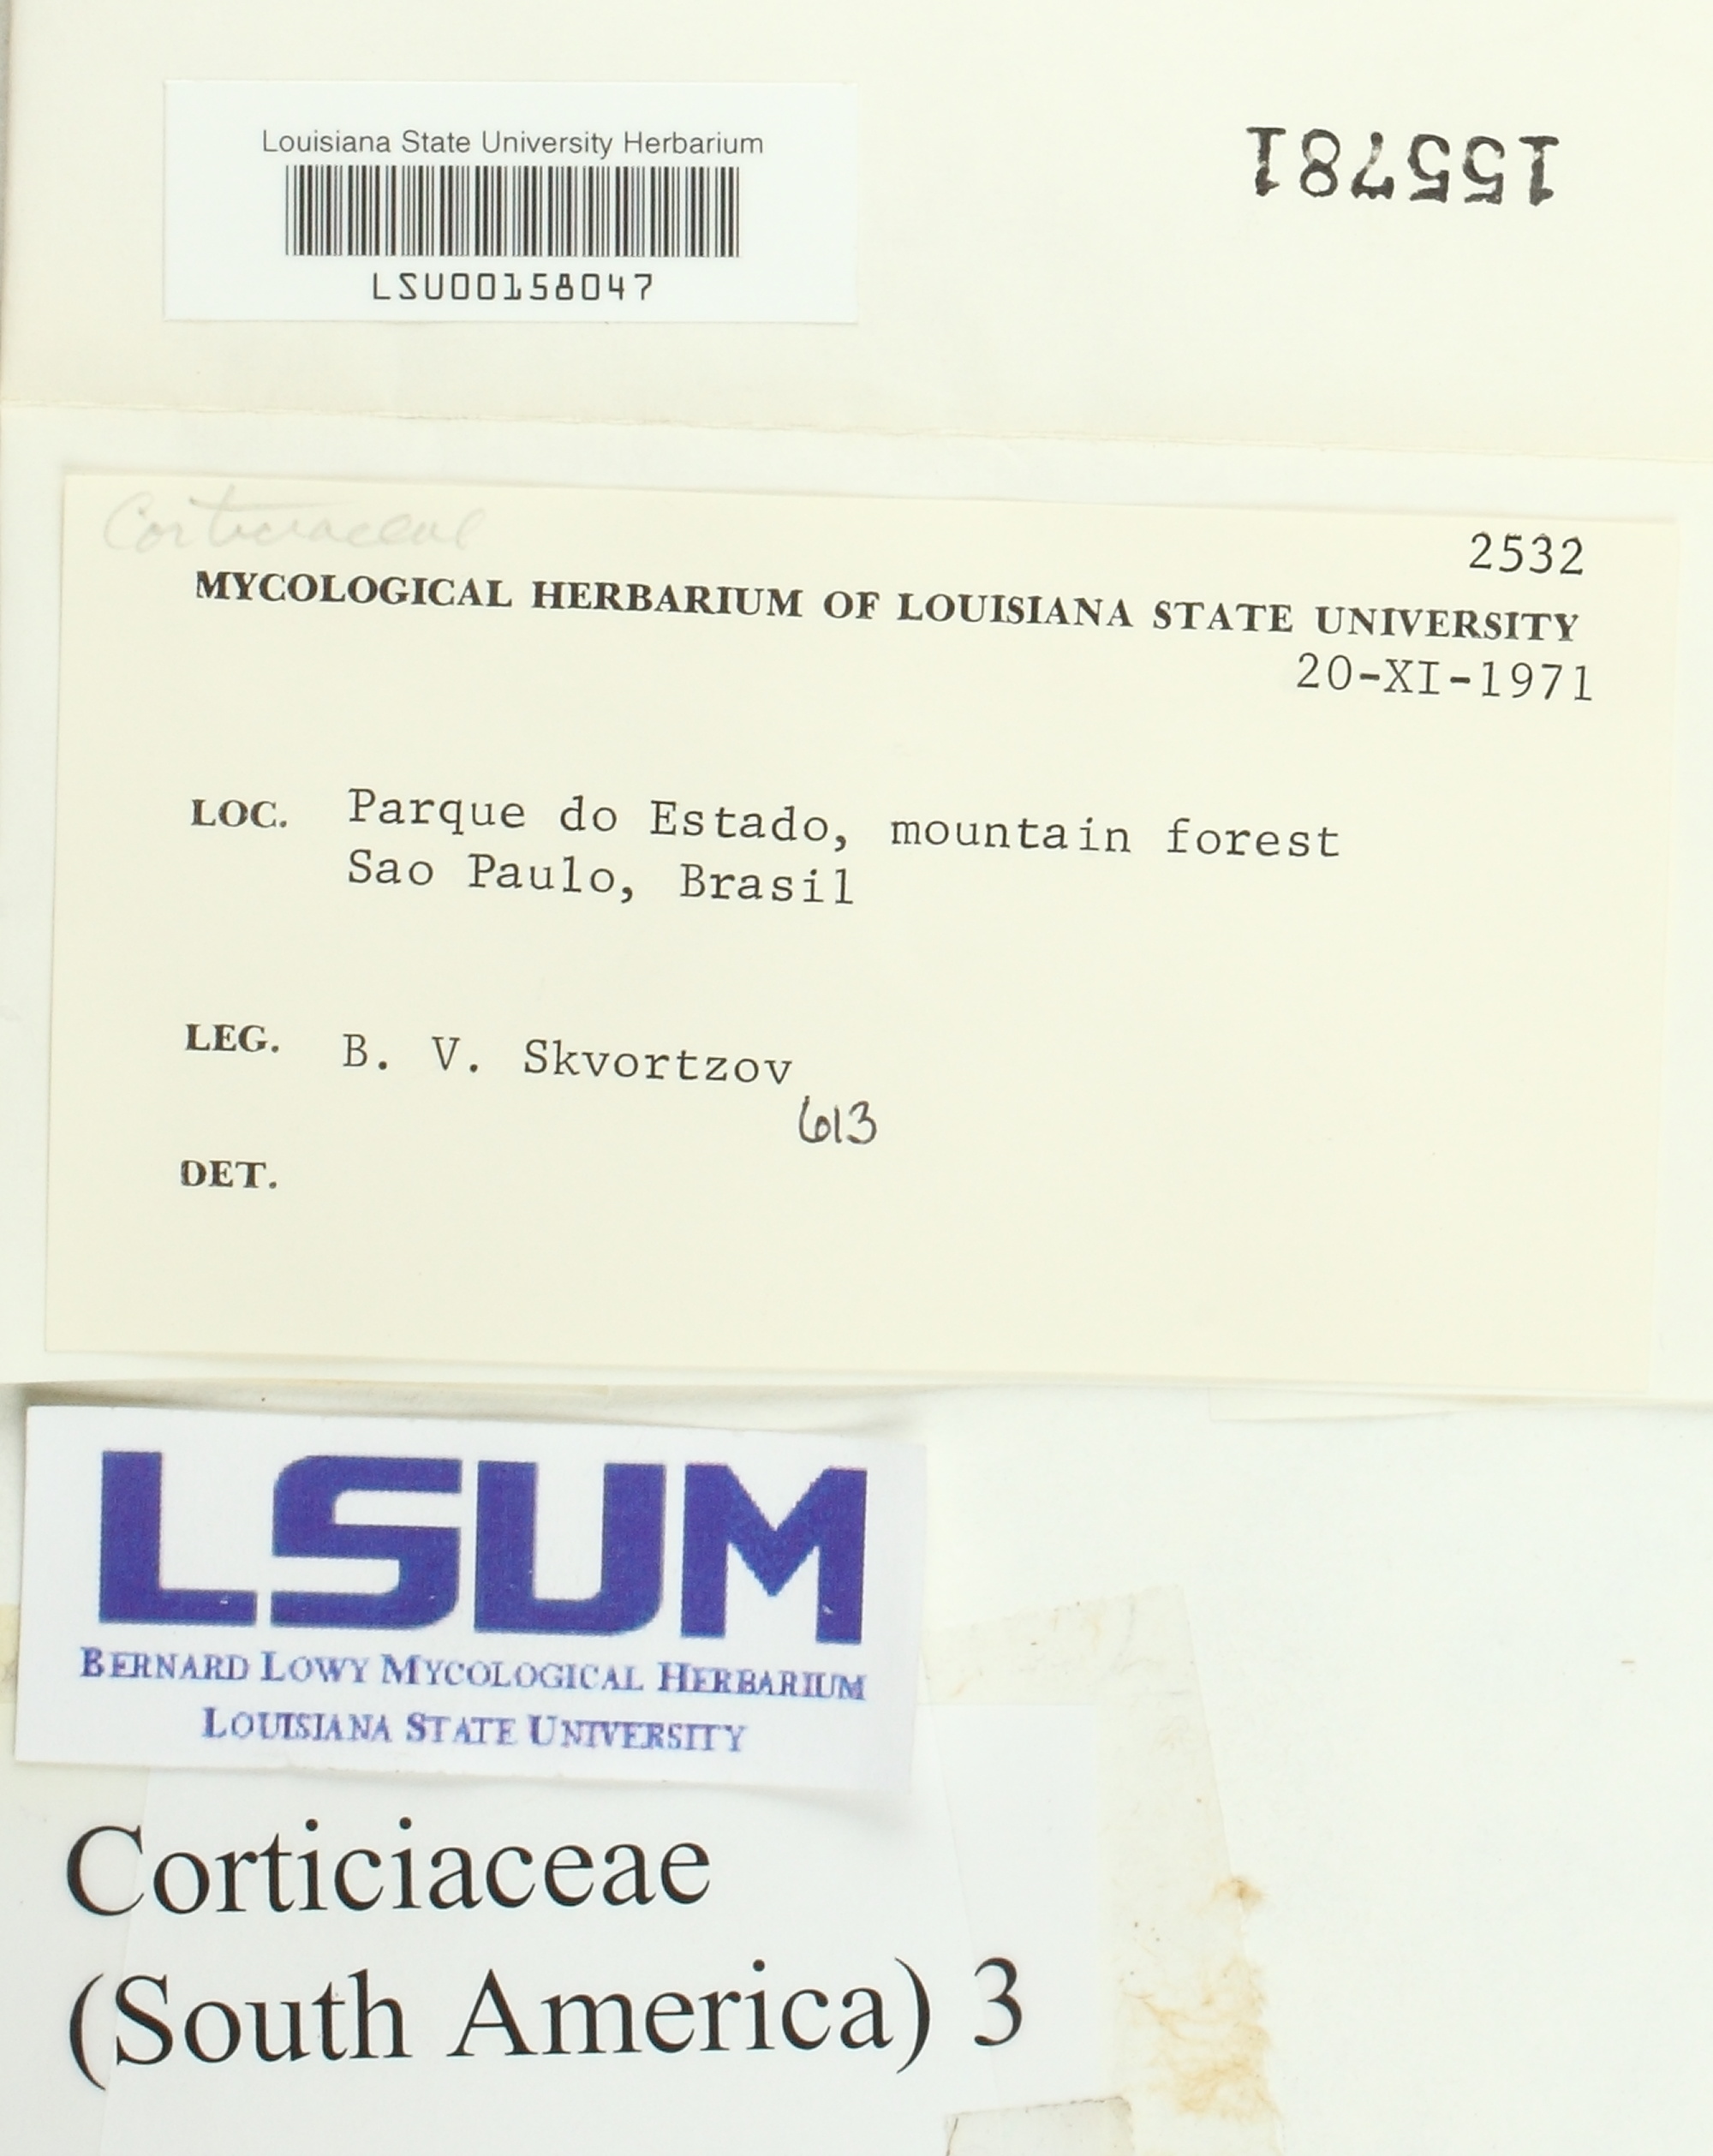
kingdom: Fungi
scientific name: Fungi
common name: Fungi
